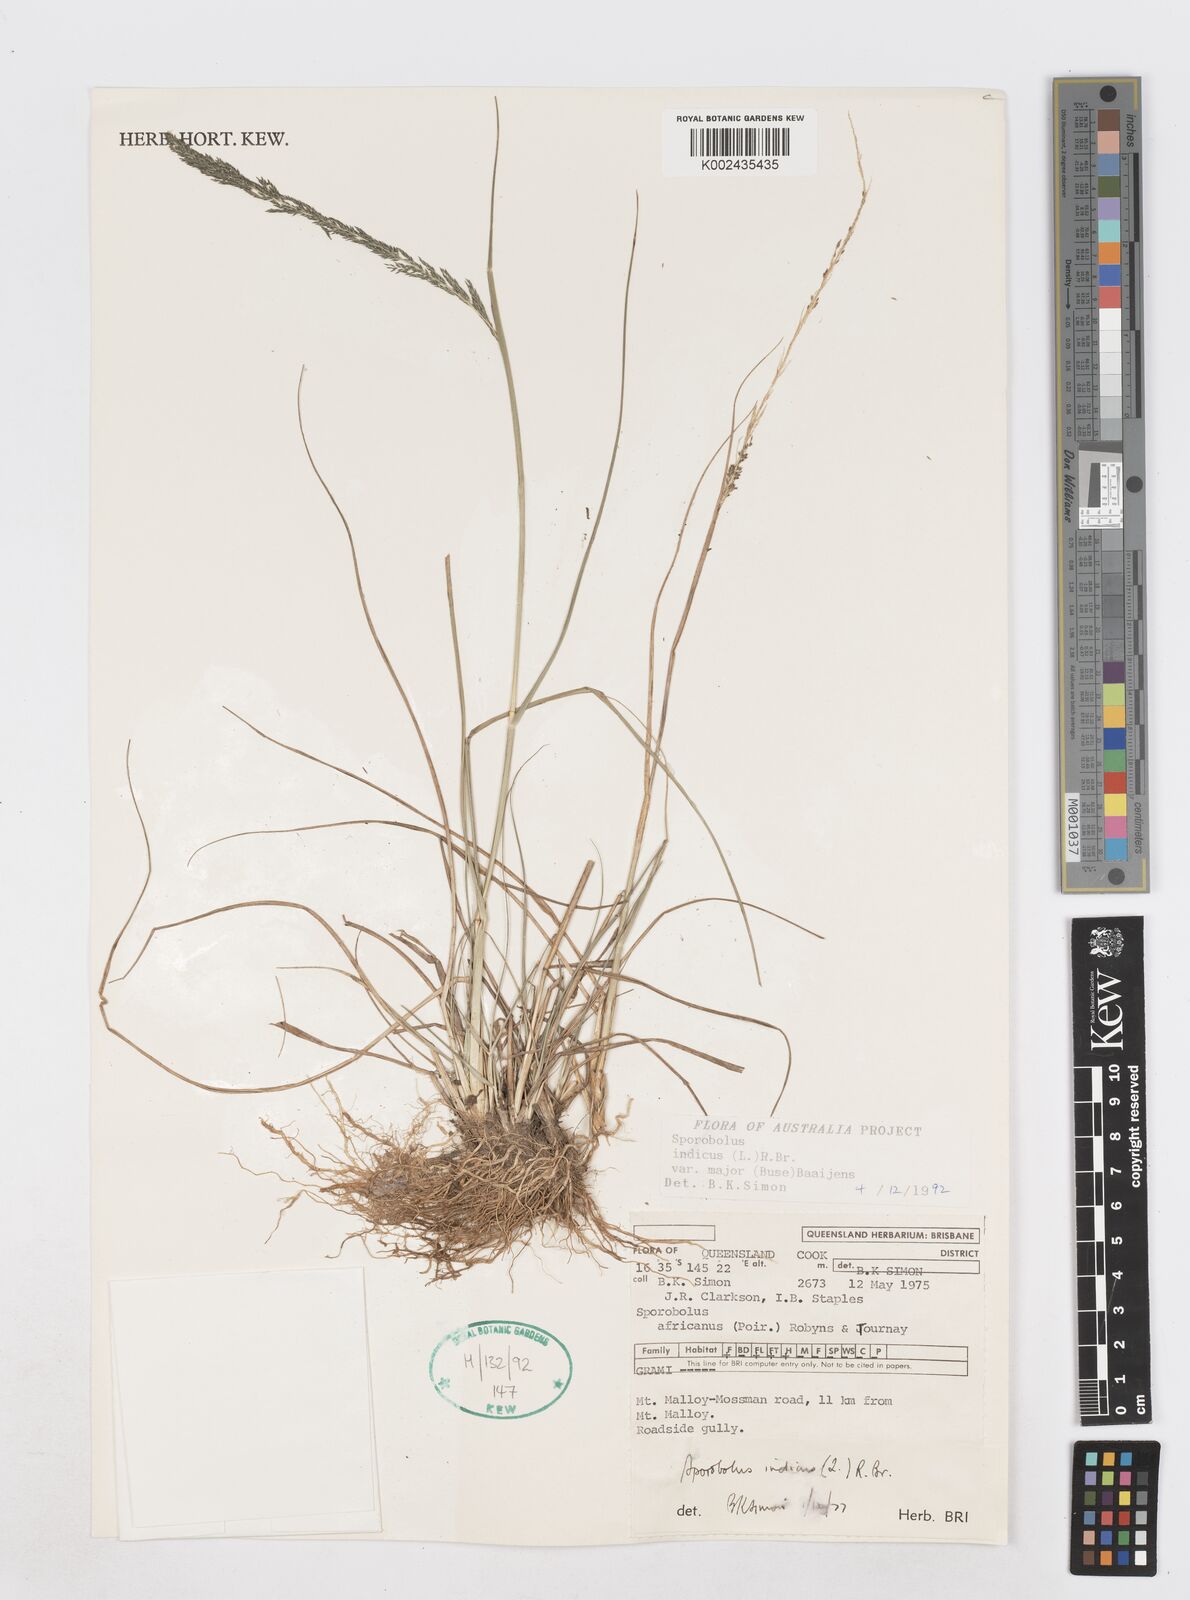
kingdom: Plantae
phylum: Tracheophyta
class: Liliopsida
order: Poales
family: Poaceae
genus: Sporobolus
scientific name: Sporobolus fertilis
